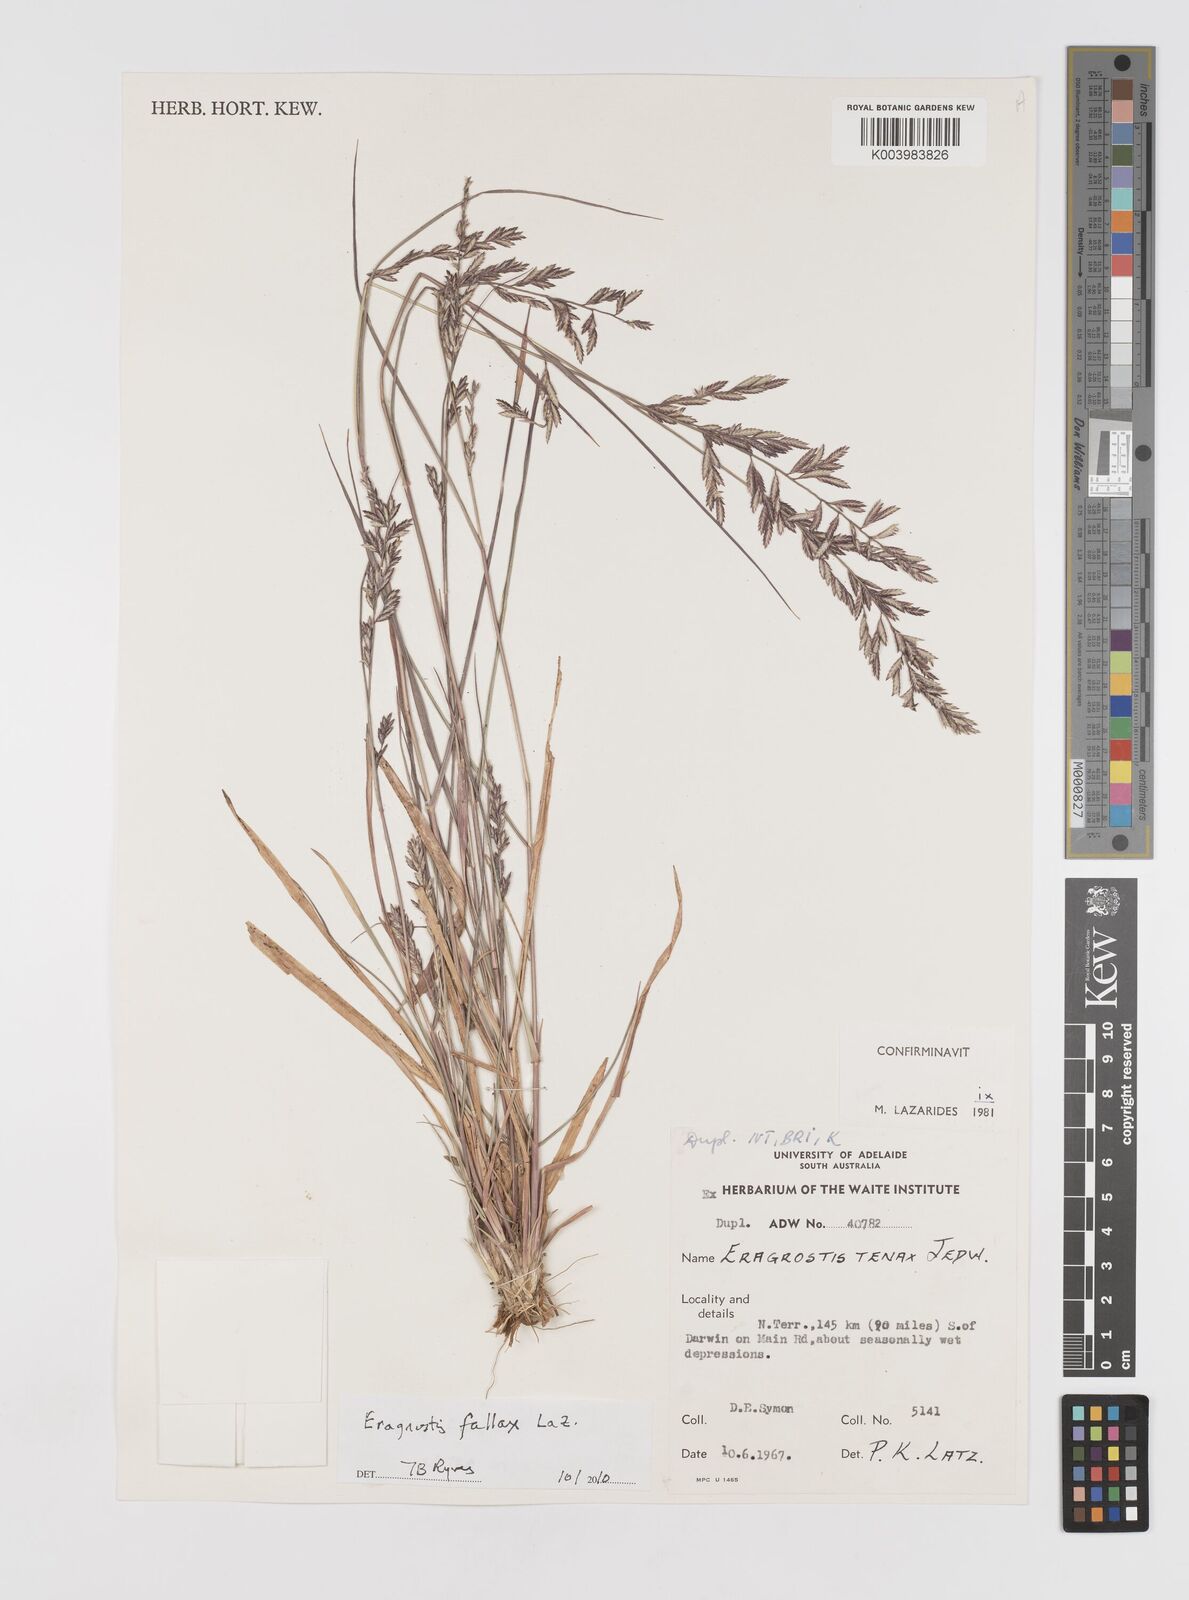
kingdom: Plantae
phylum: Tracheophyta
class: Liliopsida
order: Poales
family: Poaceae
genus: Eragrostis
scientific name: Eragrostis fallax
